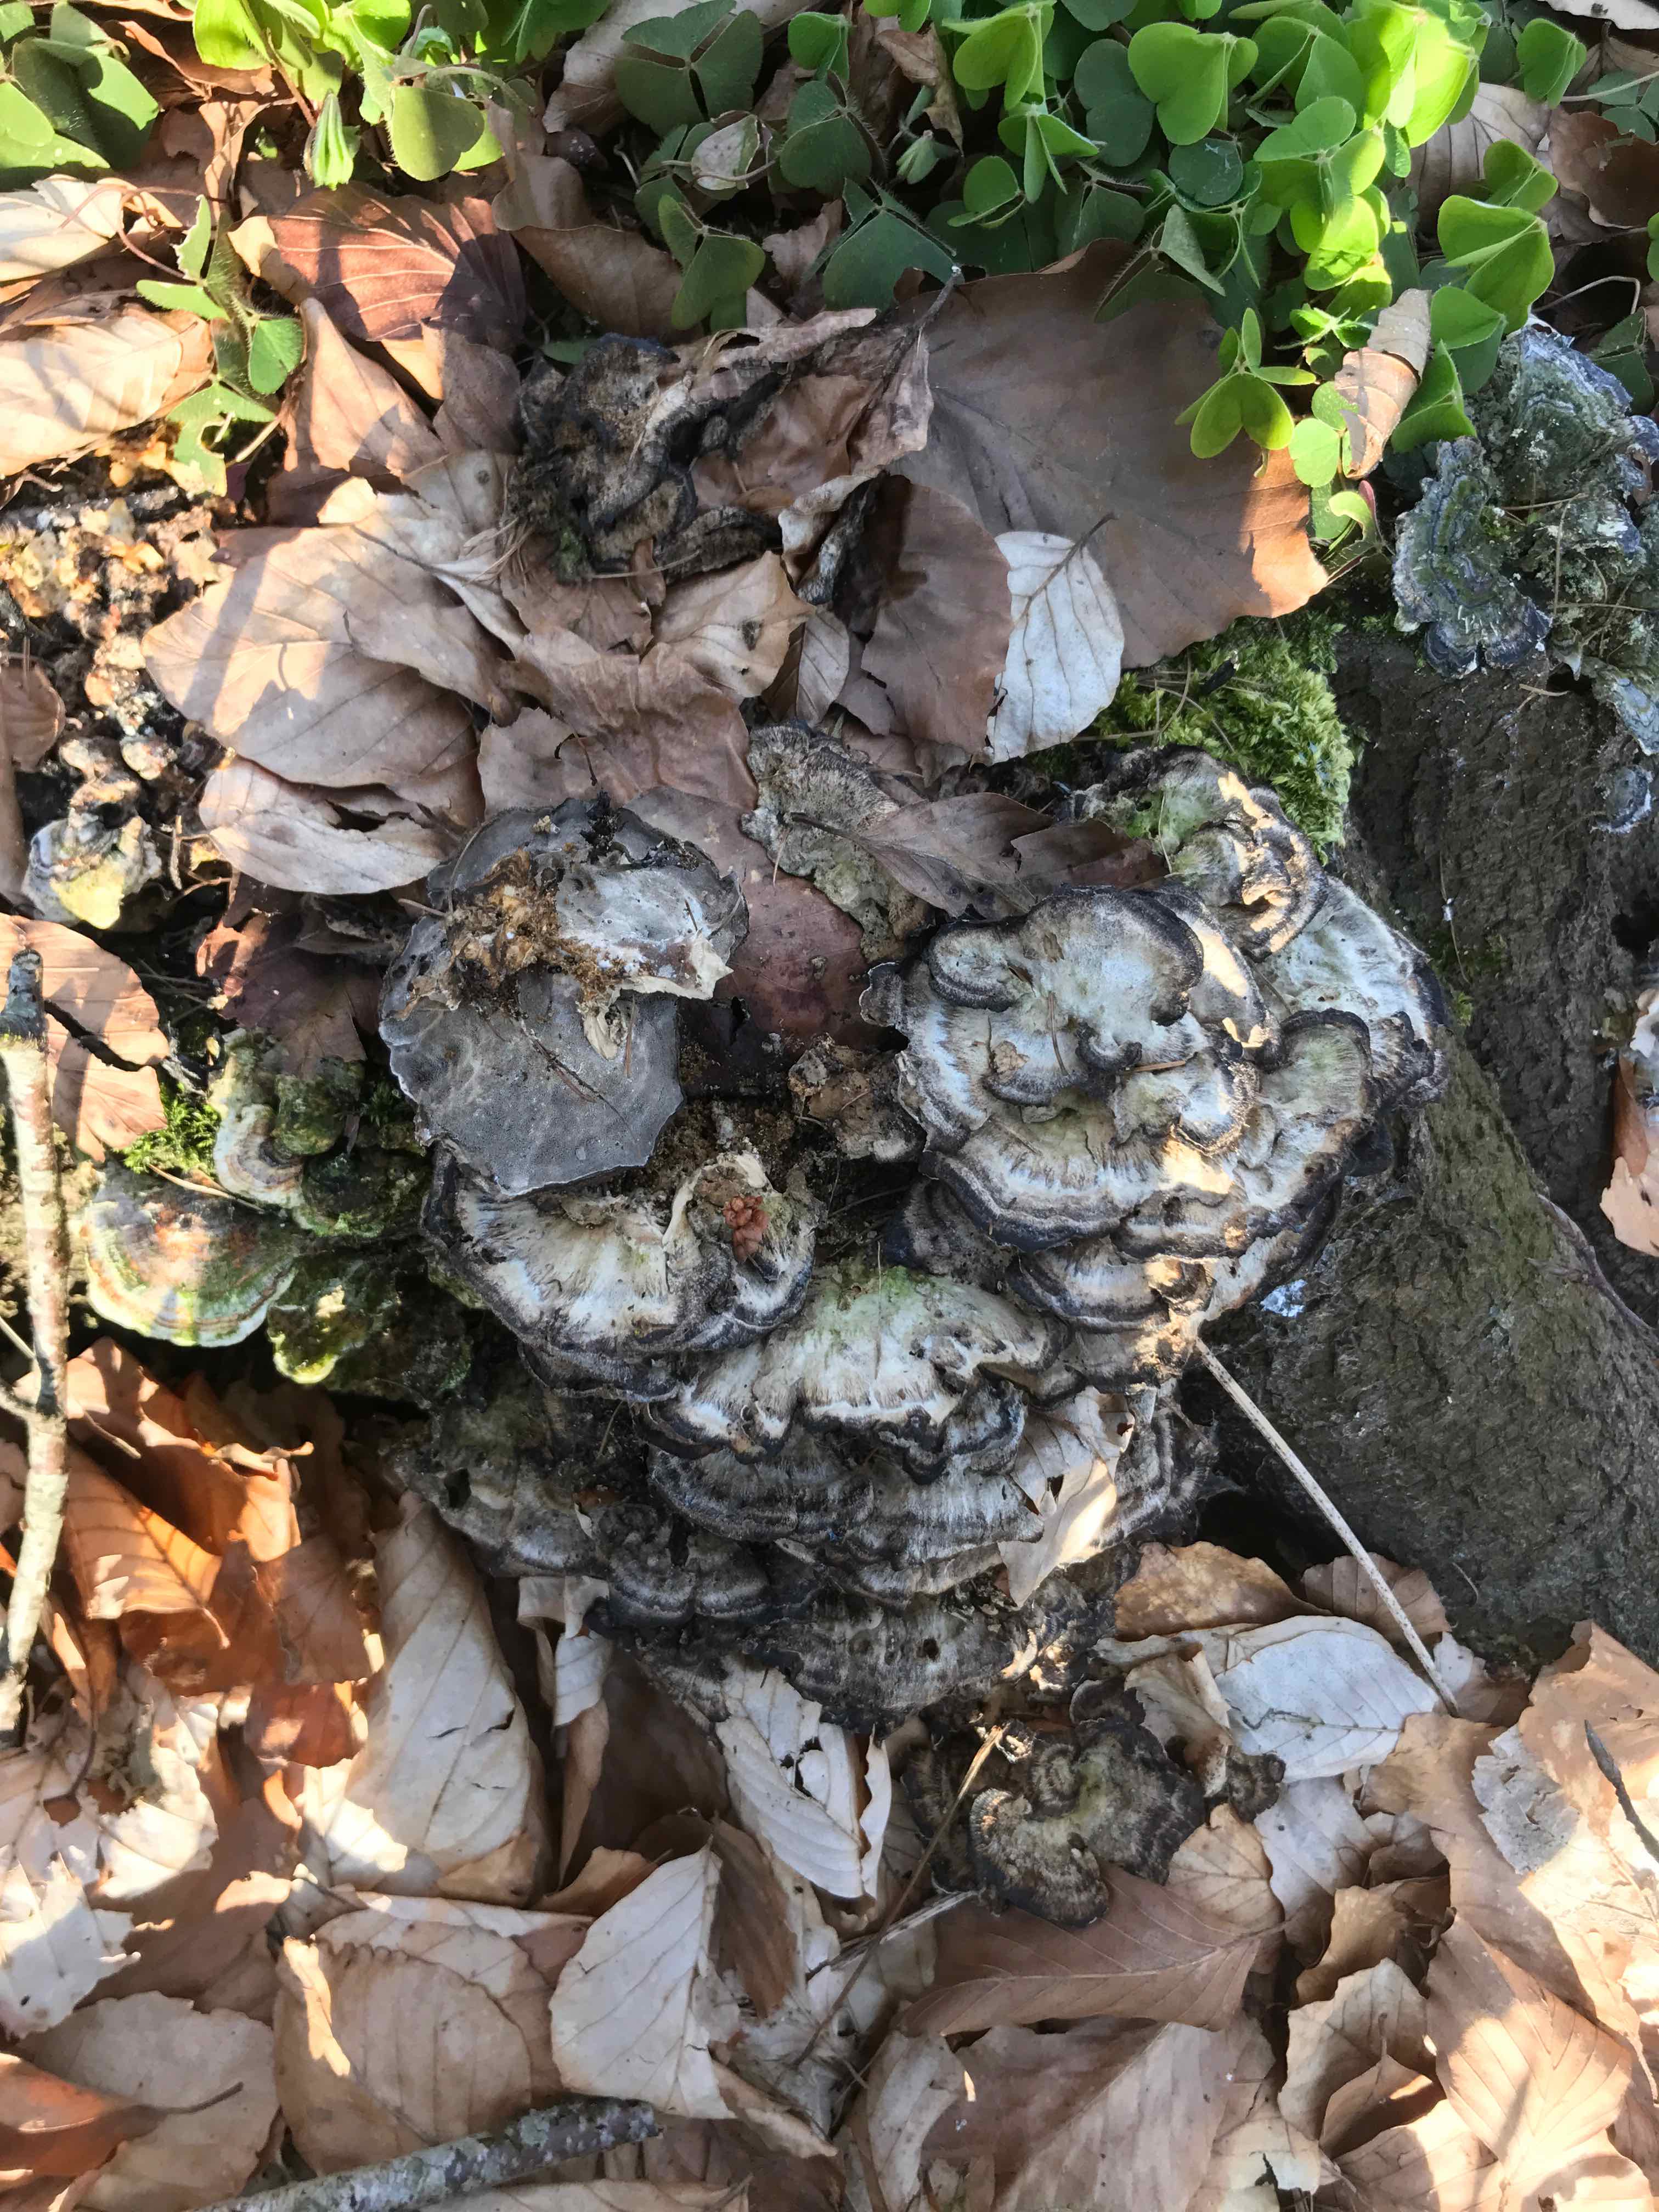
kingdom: Fungi
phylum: Basidiomycota
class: Agaricomycetes
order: Polyporales
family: Phanerochaetaceae
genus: Bjerkandera
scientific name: Bjerkandera adusta
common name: sveden sodporesvamp
